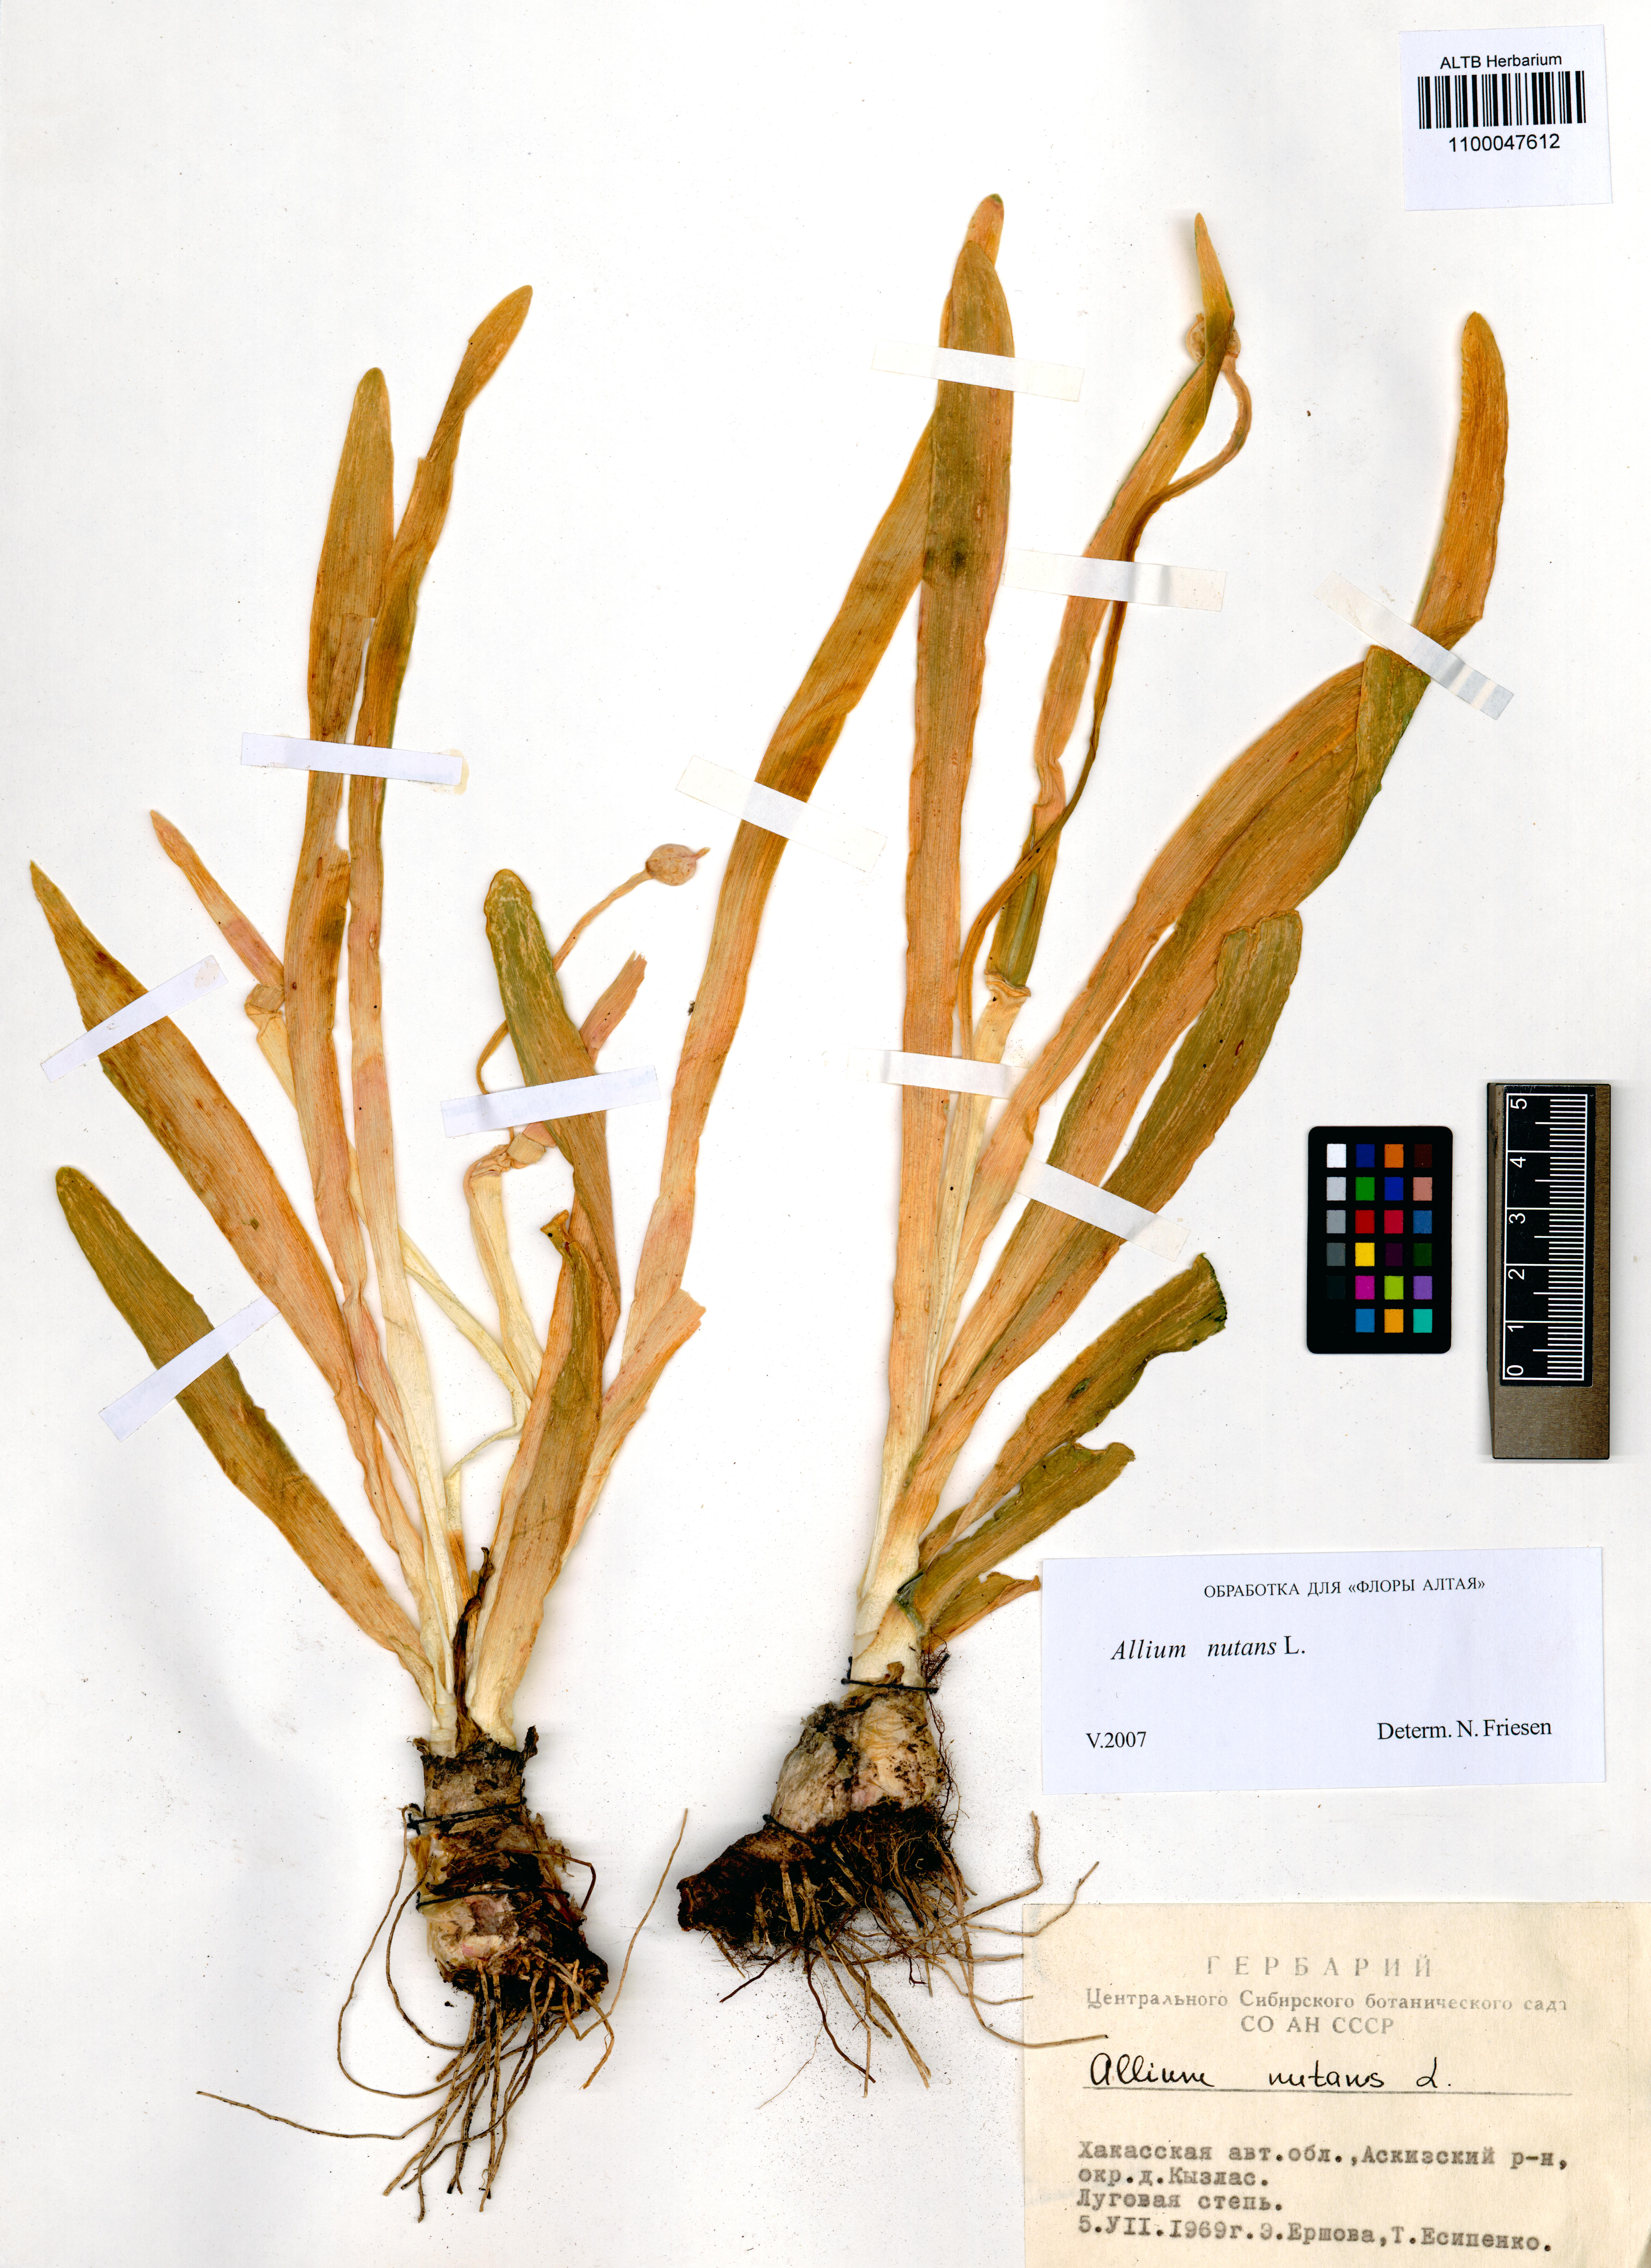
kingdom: Plantae
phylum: Tracheophyta
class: Liliopsida
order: Asparagales
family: Amaryllidaceae
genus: Allium
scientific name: Allium nutans
